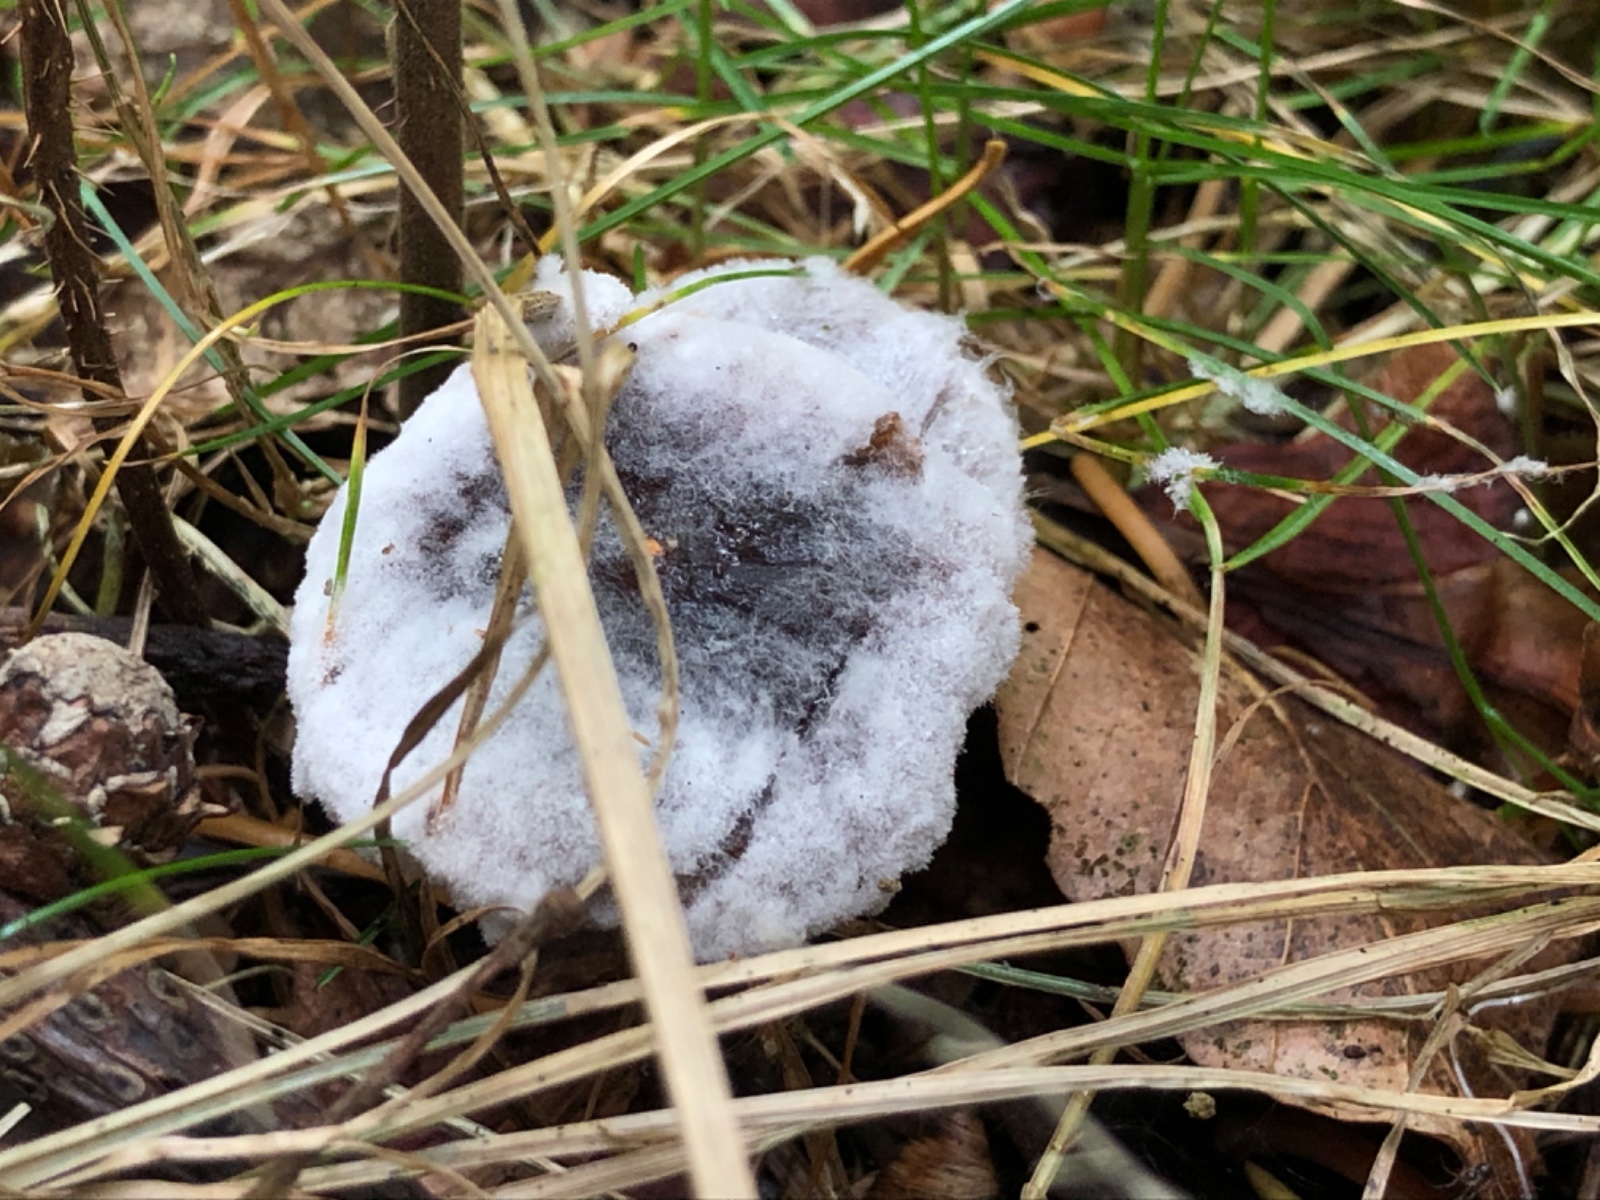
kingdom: Fungi
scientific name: Fungi
